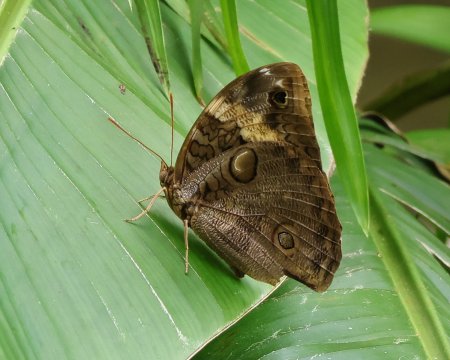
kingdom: Animalia
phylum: Arthropoda
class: Insecta
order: Lepidoptera
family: Nymphalidae
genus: Opsiphanes
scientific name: Opsiphanes cassiae
